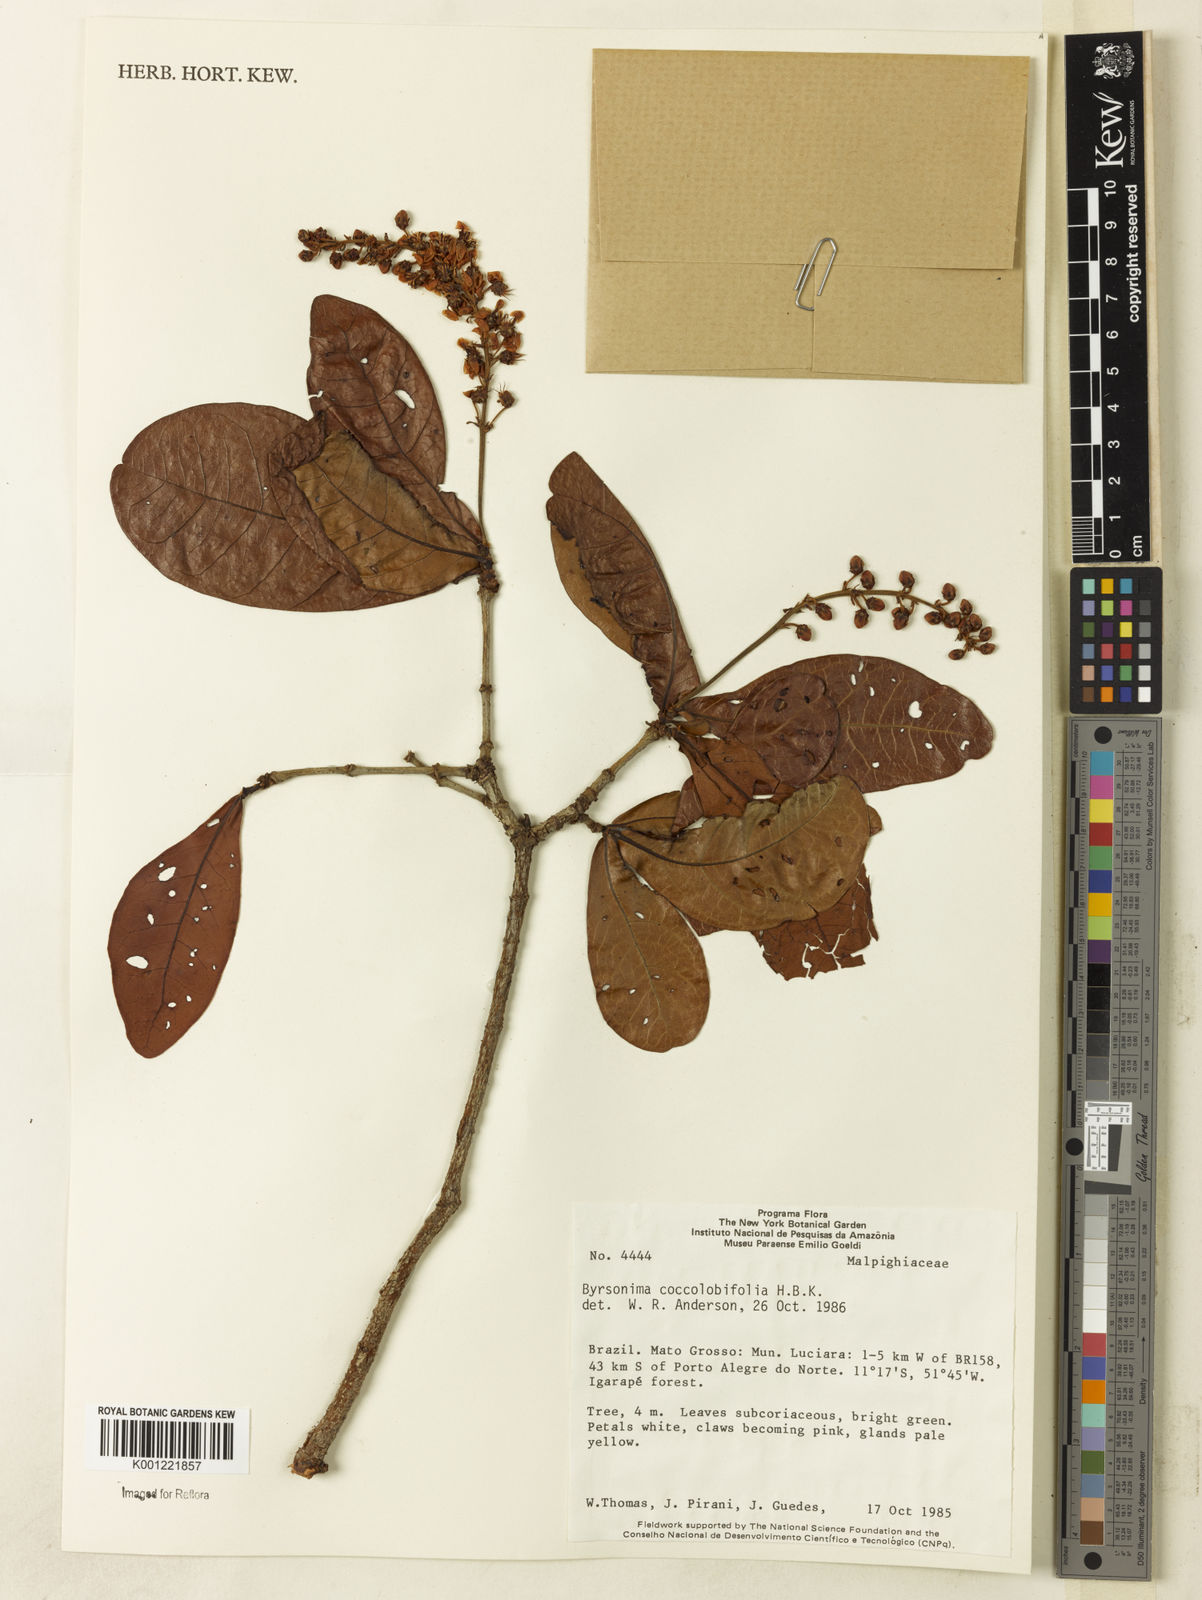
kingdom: Plantae
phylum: Tracheophyta
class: Magnoliopsida
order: Malpighiales
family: Malpighiaceae
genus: Byrsonima
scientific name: Byrsonima coccolobifolia
